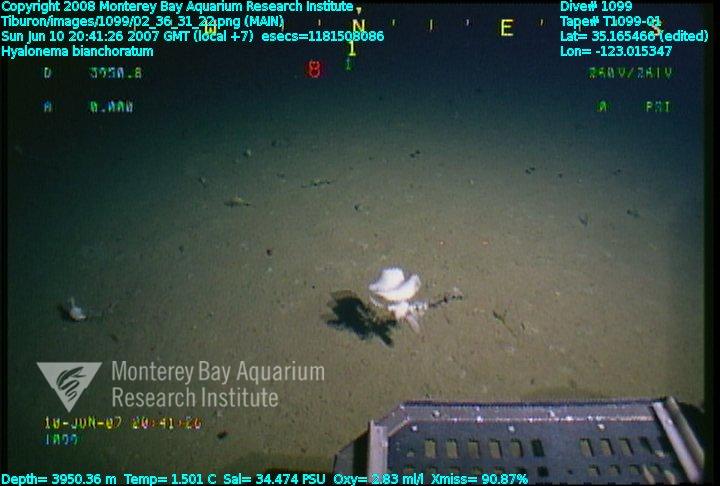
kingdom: Animalia
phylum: Porifera
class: Hexactinellida
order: Amphidiscosida
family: Hyalonematidae
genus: Hyalonema
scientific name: Hyalonema bianchoratum
